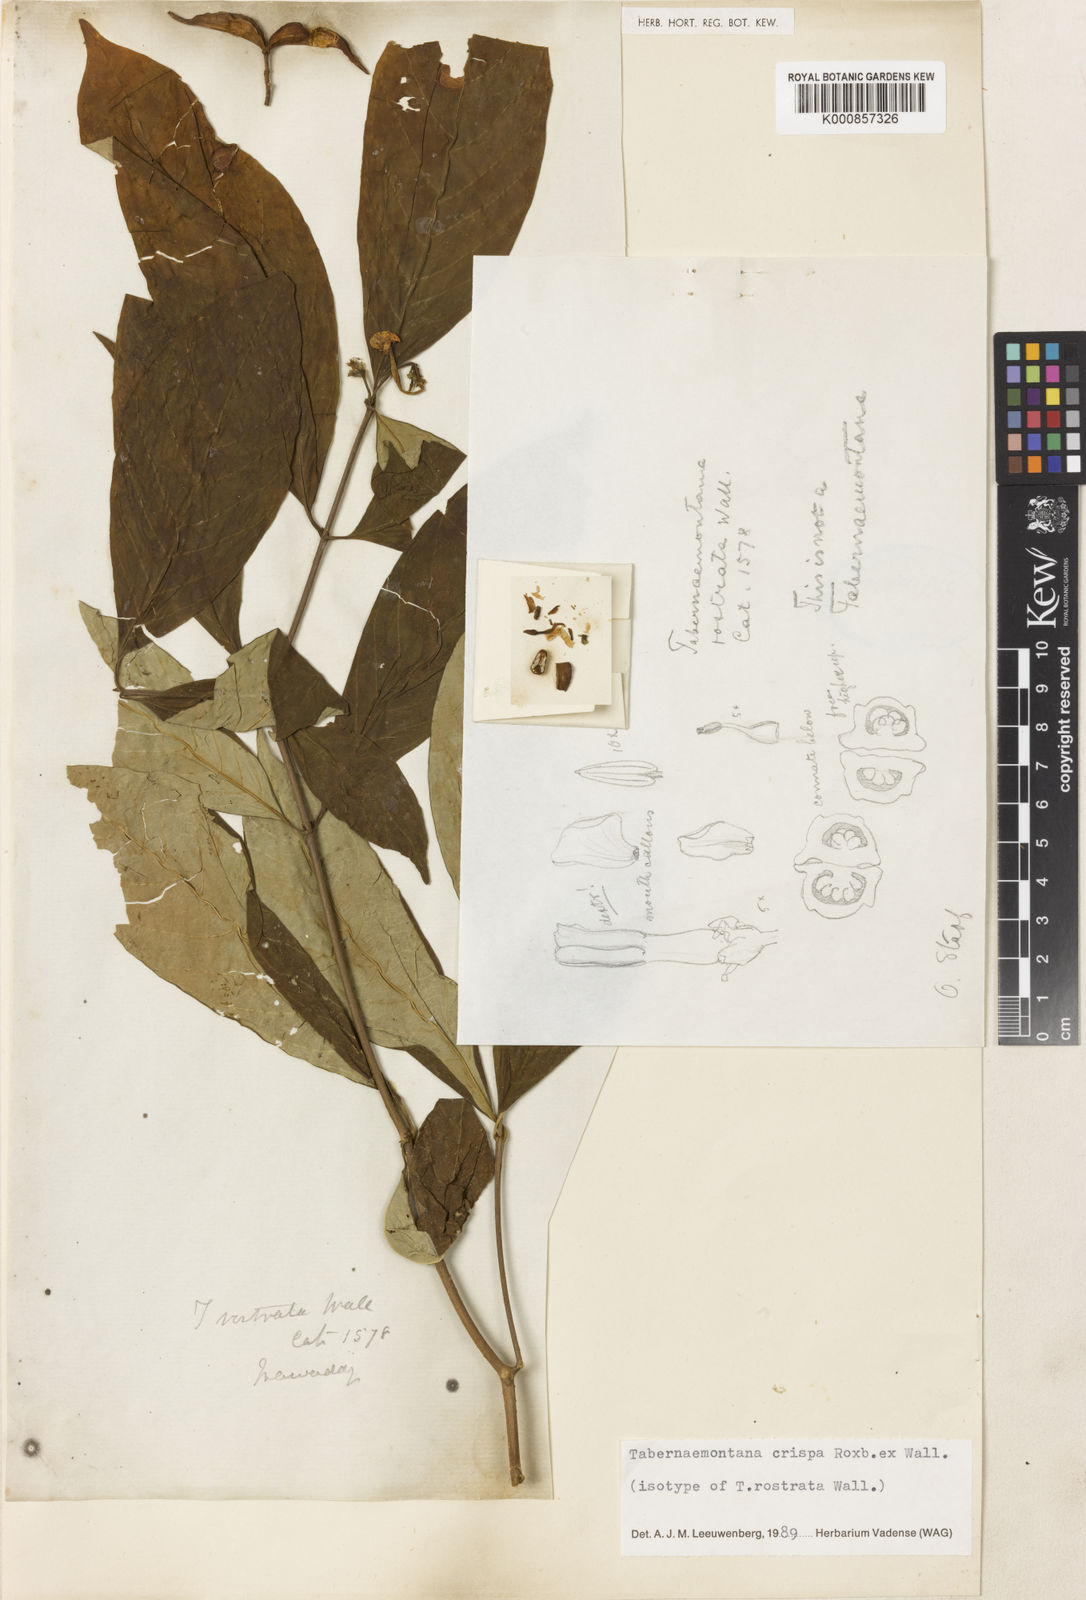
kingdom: Plantae
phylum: Tracheophyta
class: Magnoliopsida
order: Gentianales
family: Apocynaceae
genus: Tabernaemontana
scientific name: Tabernaemontana rostrata
